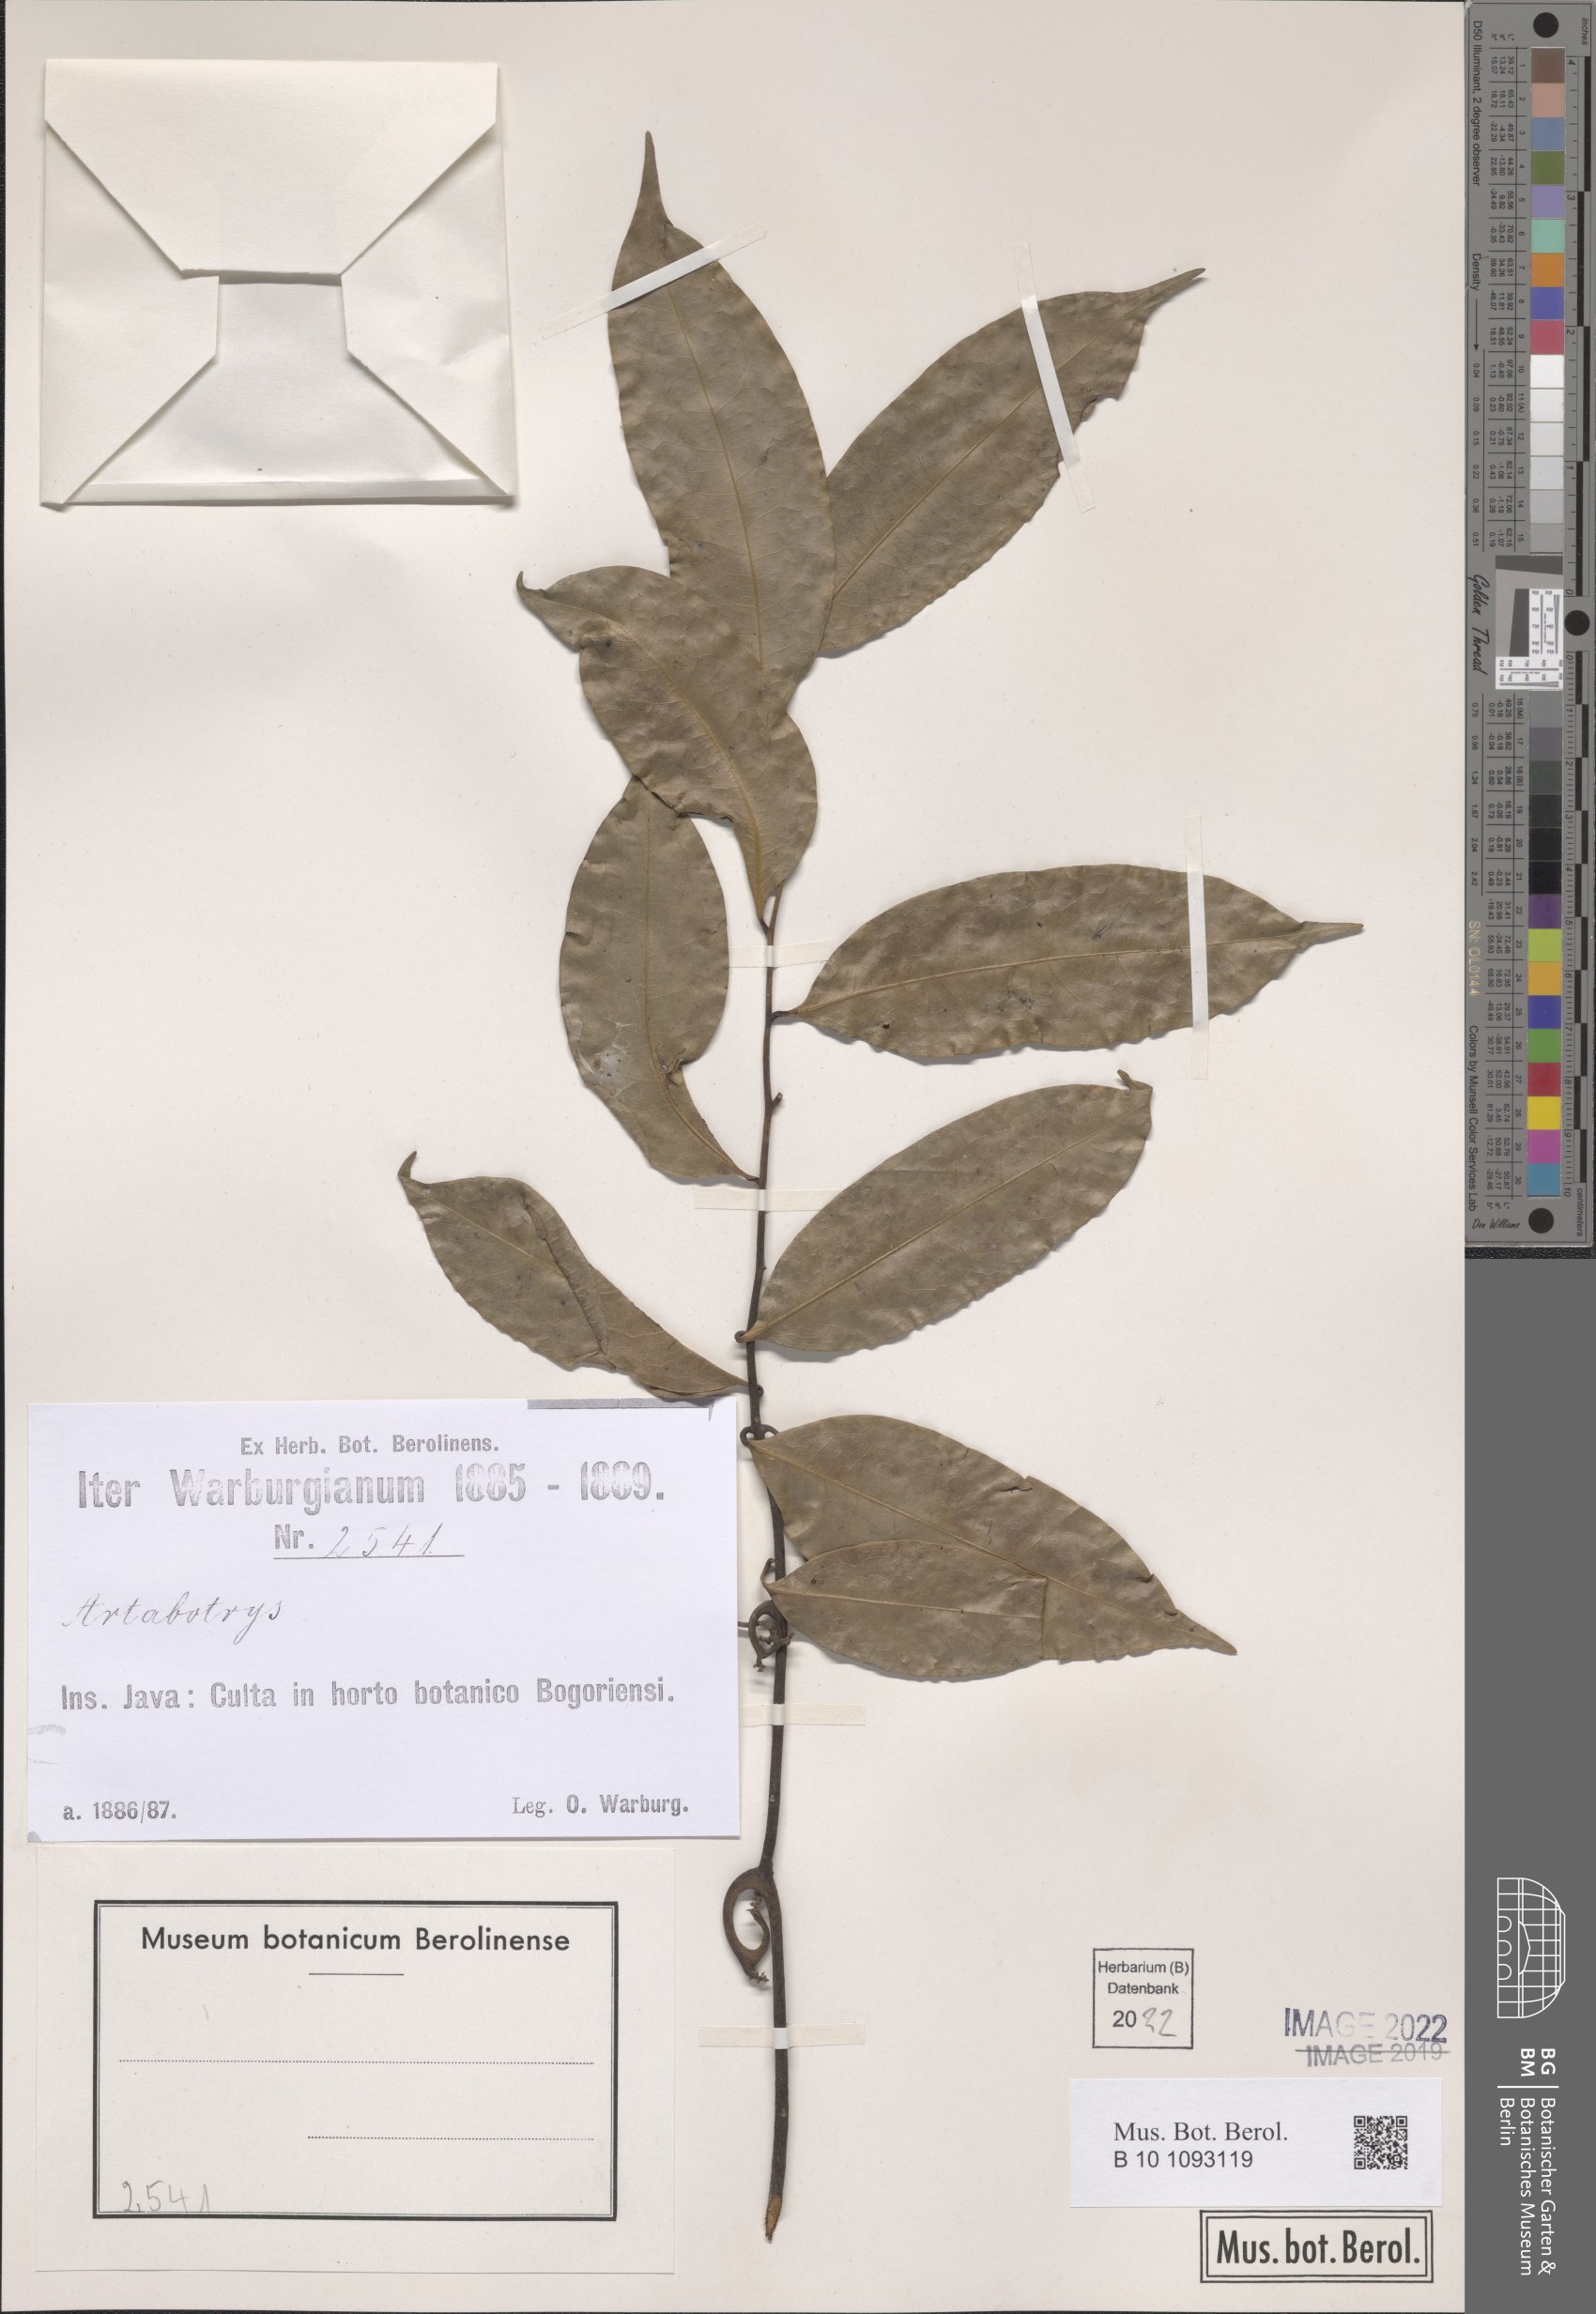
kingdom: Plantae
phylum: Tracheophyta
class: Magnoliopsida
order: Magnoliales
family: Annonaceae
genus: Artabotrys
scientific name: Artabotrys
